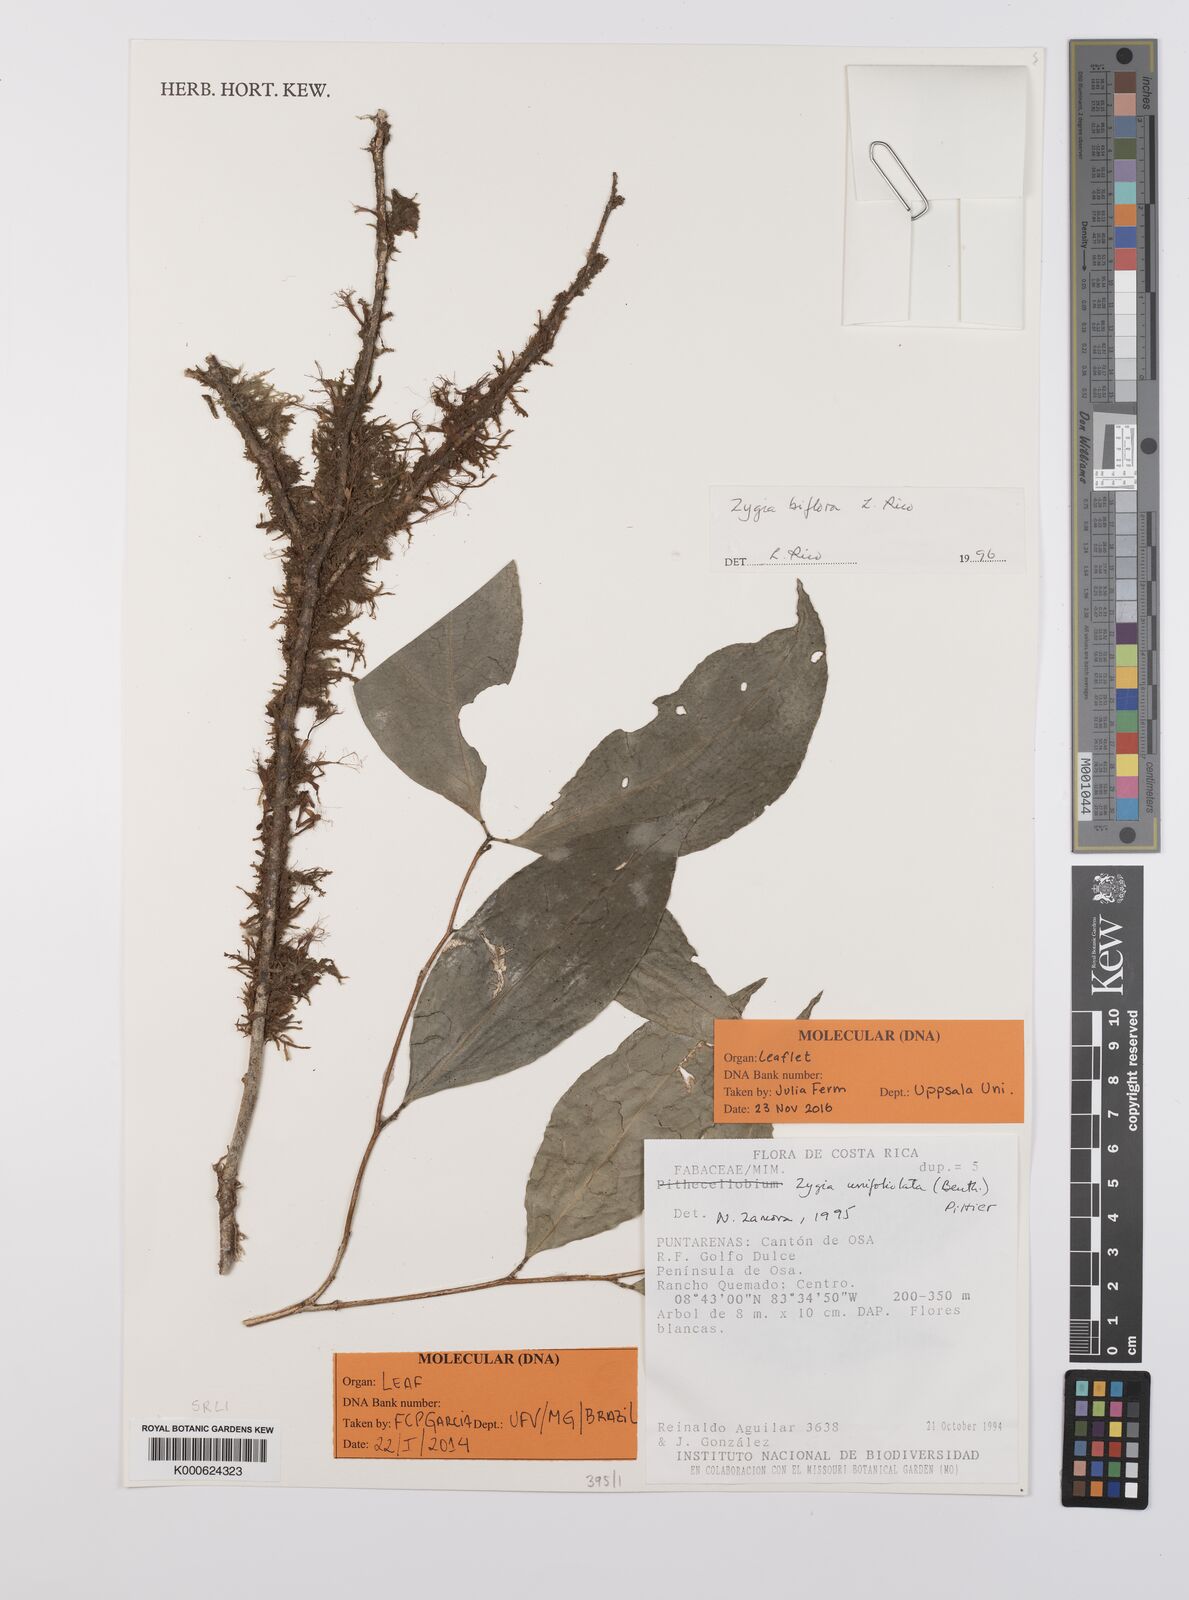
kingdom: Plantae
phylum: Tracheophyta
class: Magnoliopsida
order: Fabales
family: Fabaceae
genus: Zygia
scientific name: Zygia biflora
